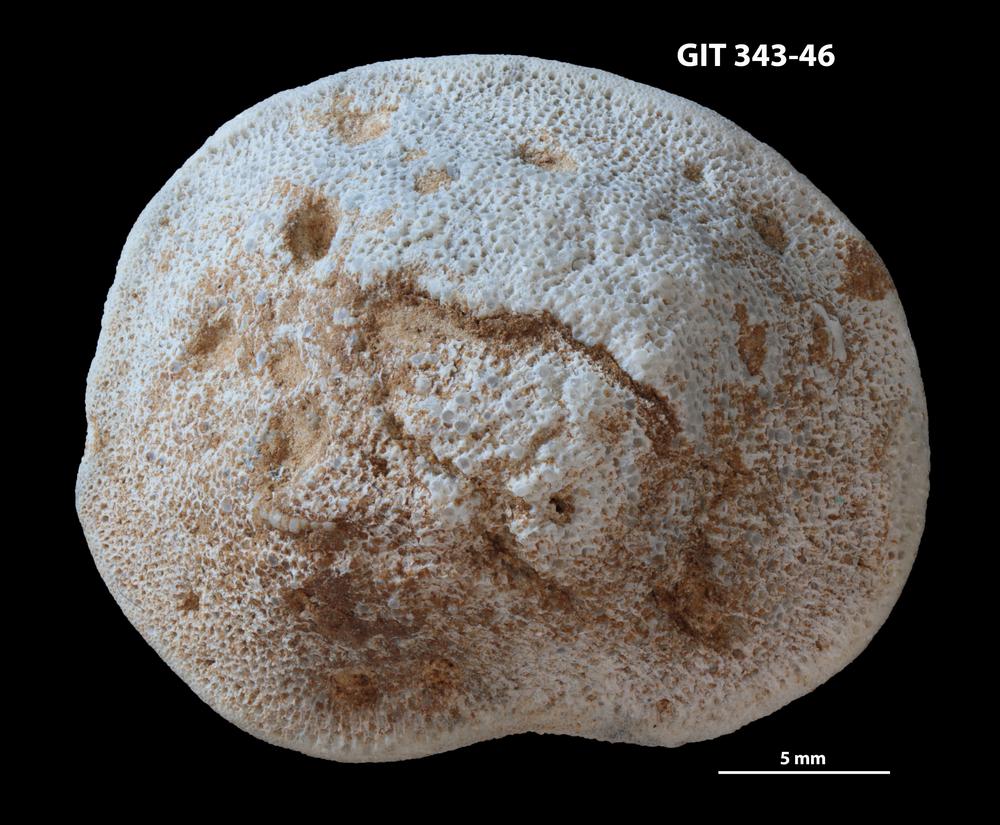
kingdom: Animalia
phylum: Bryozoa
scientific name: Bryozoa
